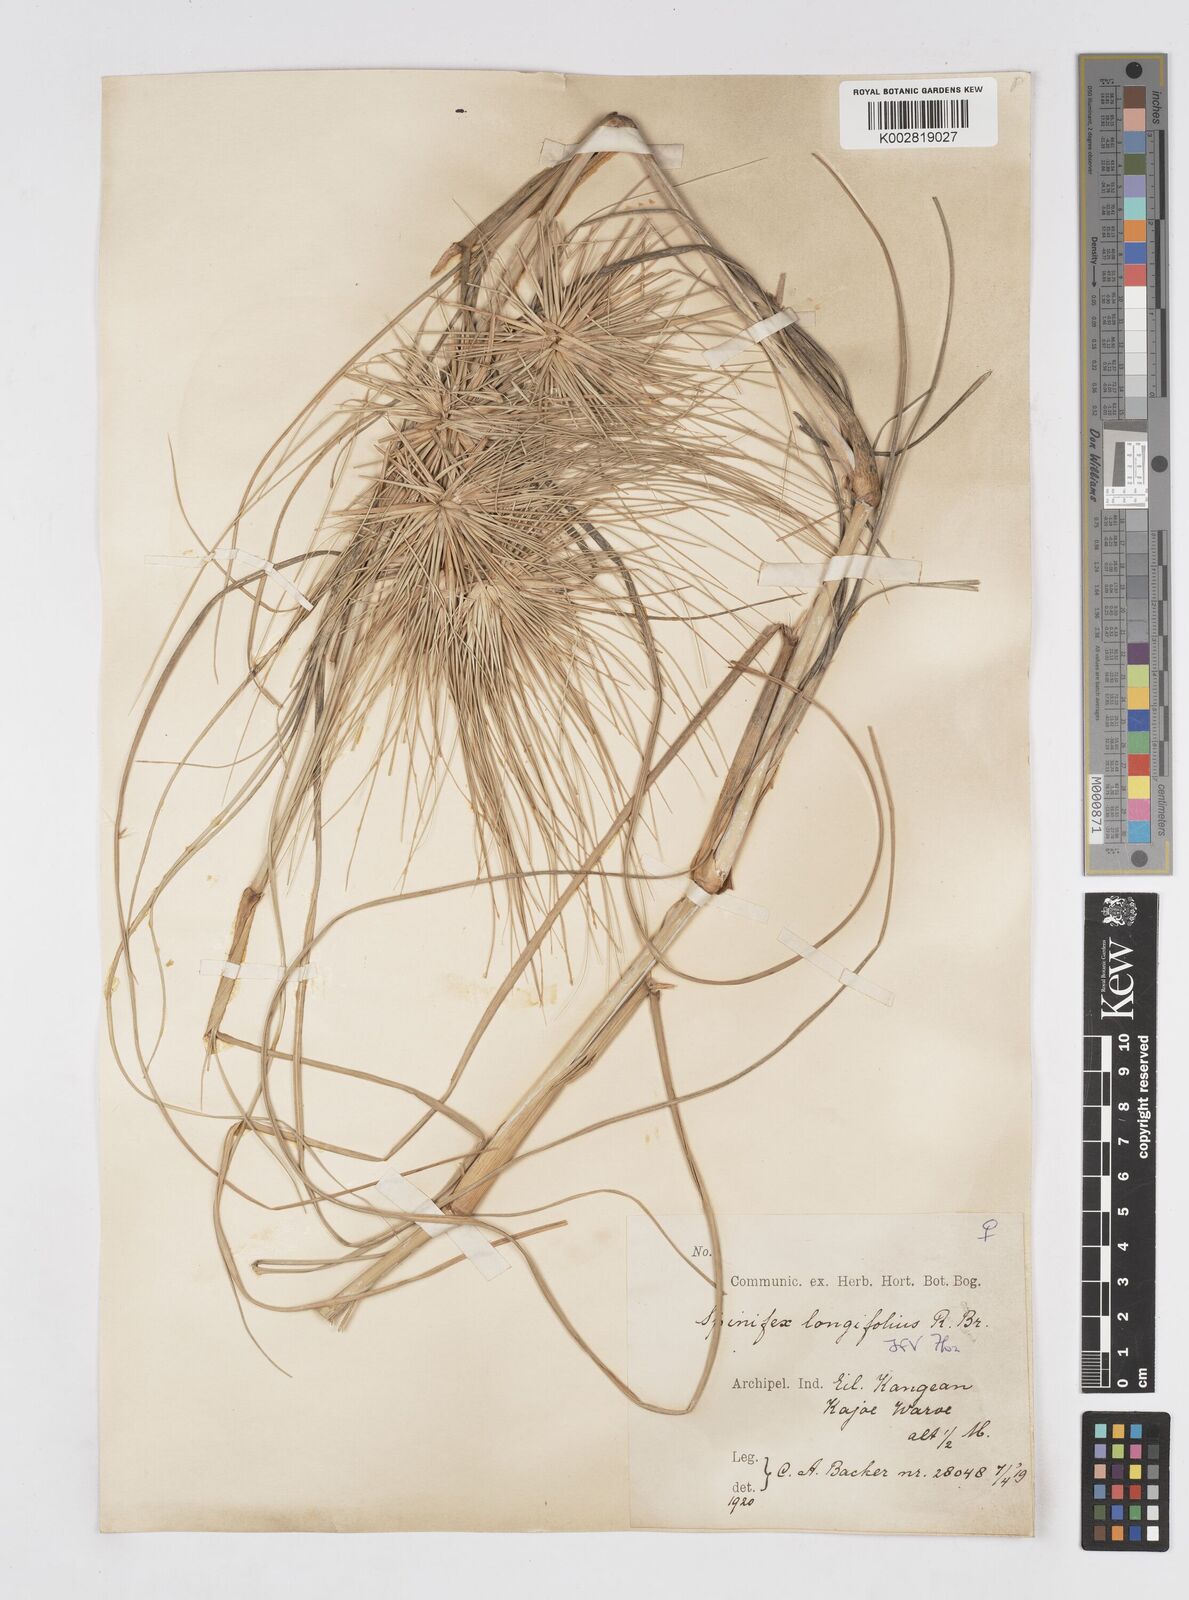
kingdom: Plantae
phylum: Tracheophyta
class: Liliopsida
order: Poales
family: Poaceae
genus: Spinifex
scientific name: Spinifex longifolius
